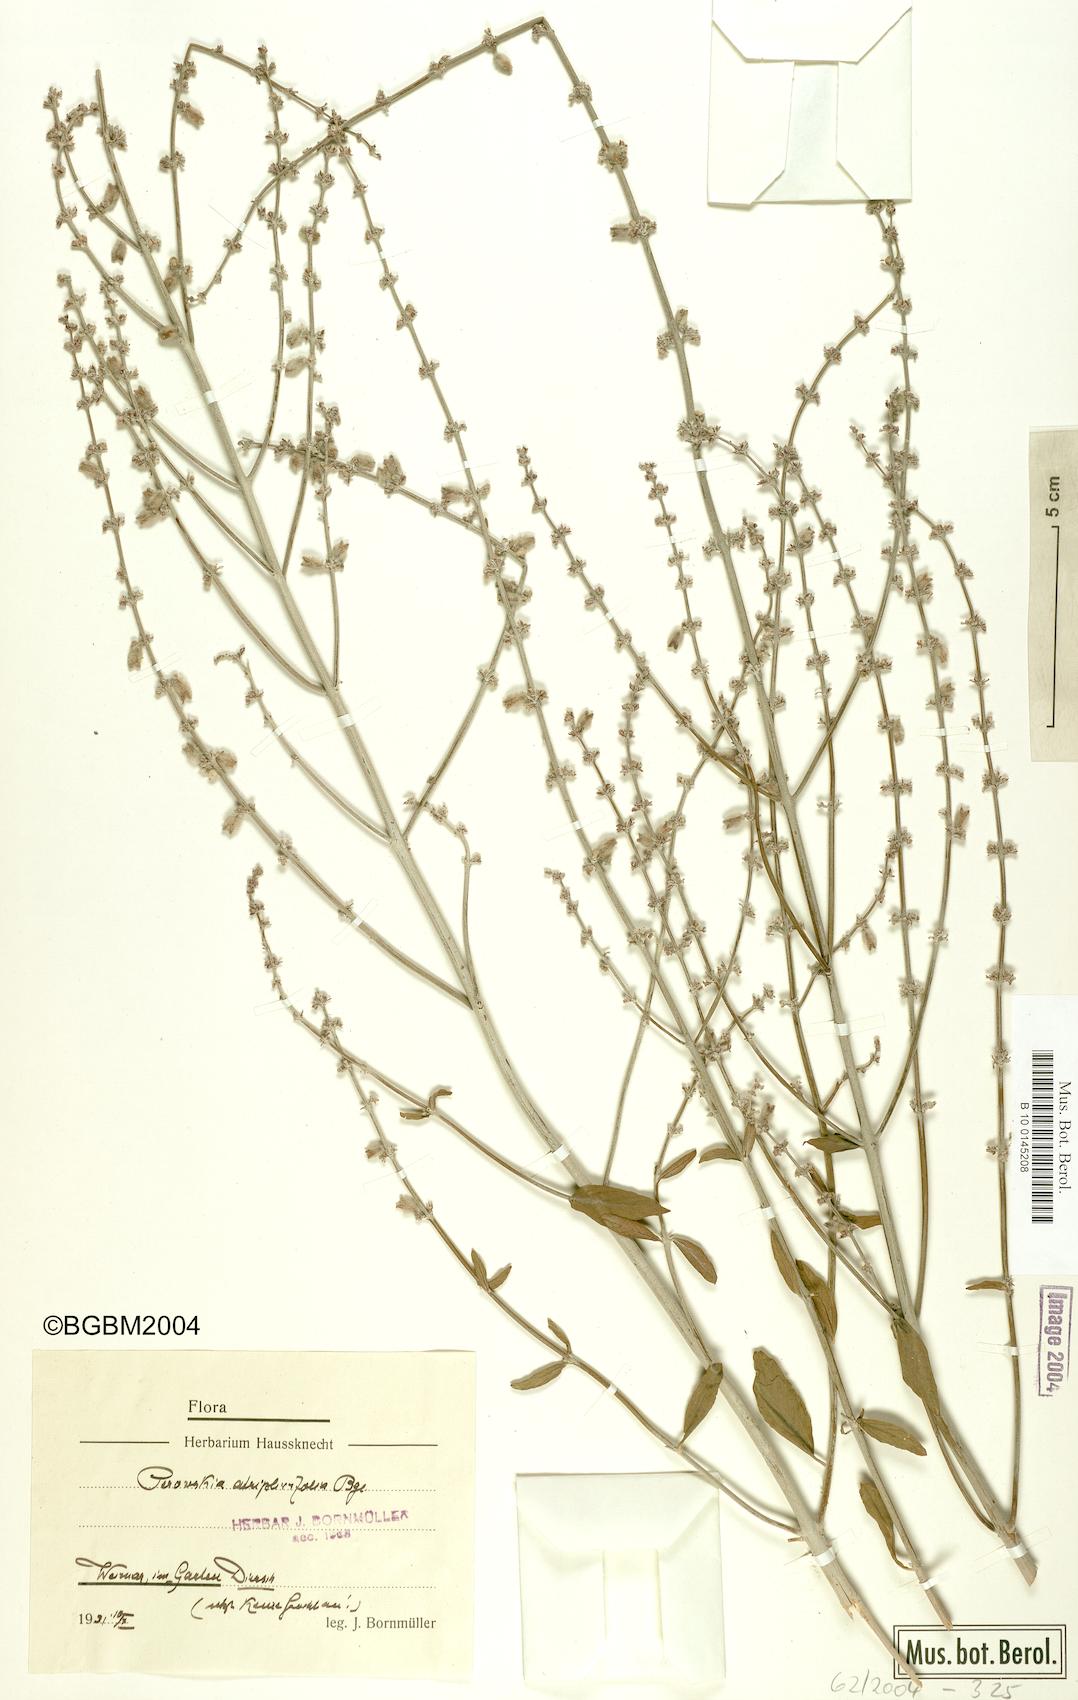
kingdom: Plantae
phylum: Tracheophyta
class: Magnoliopsida
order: Lamiales
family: Lamiaceae
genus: Salvia
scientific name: Salvia yangii
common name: Russian sage
